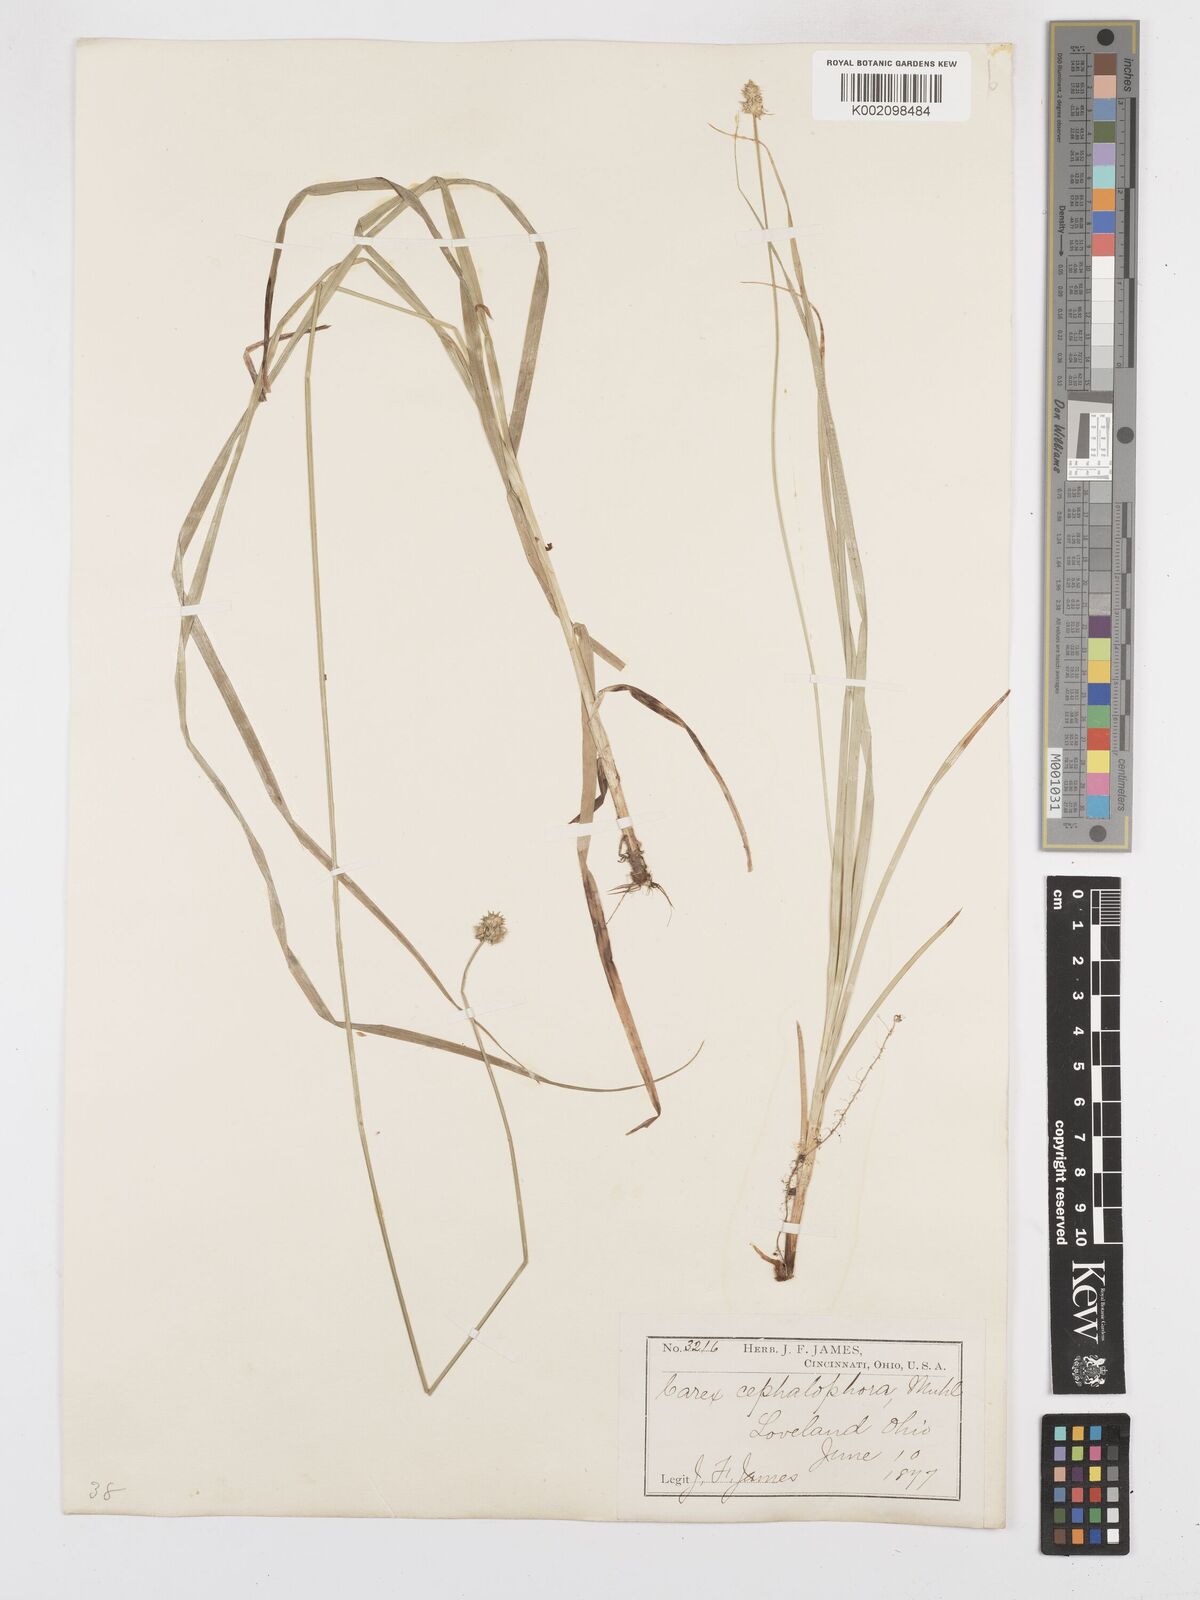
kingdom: Plantae
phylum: Tracheophyta
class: Liliopsida
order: Poales
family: Cyperaceae
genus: Carex
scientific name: Carex cephalophora
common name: Oval-headed sedge
